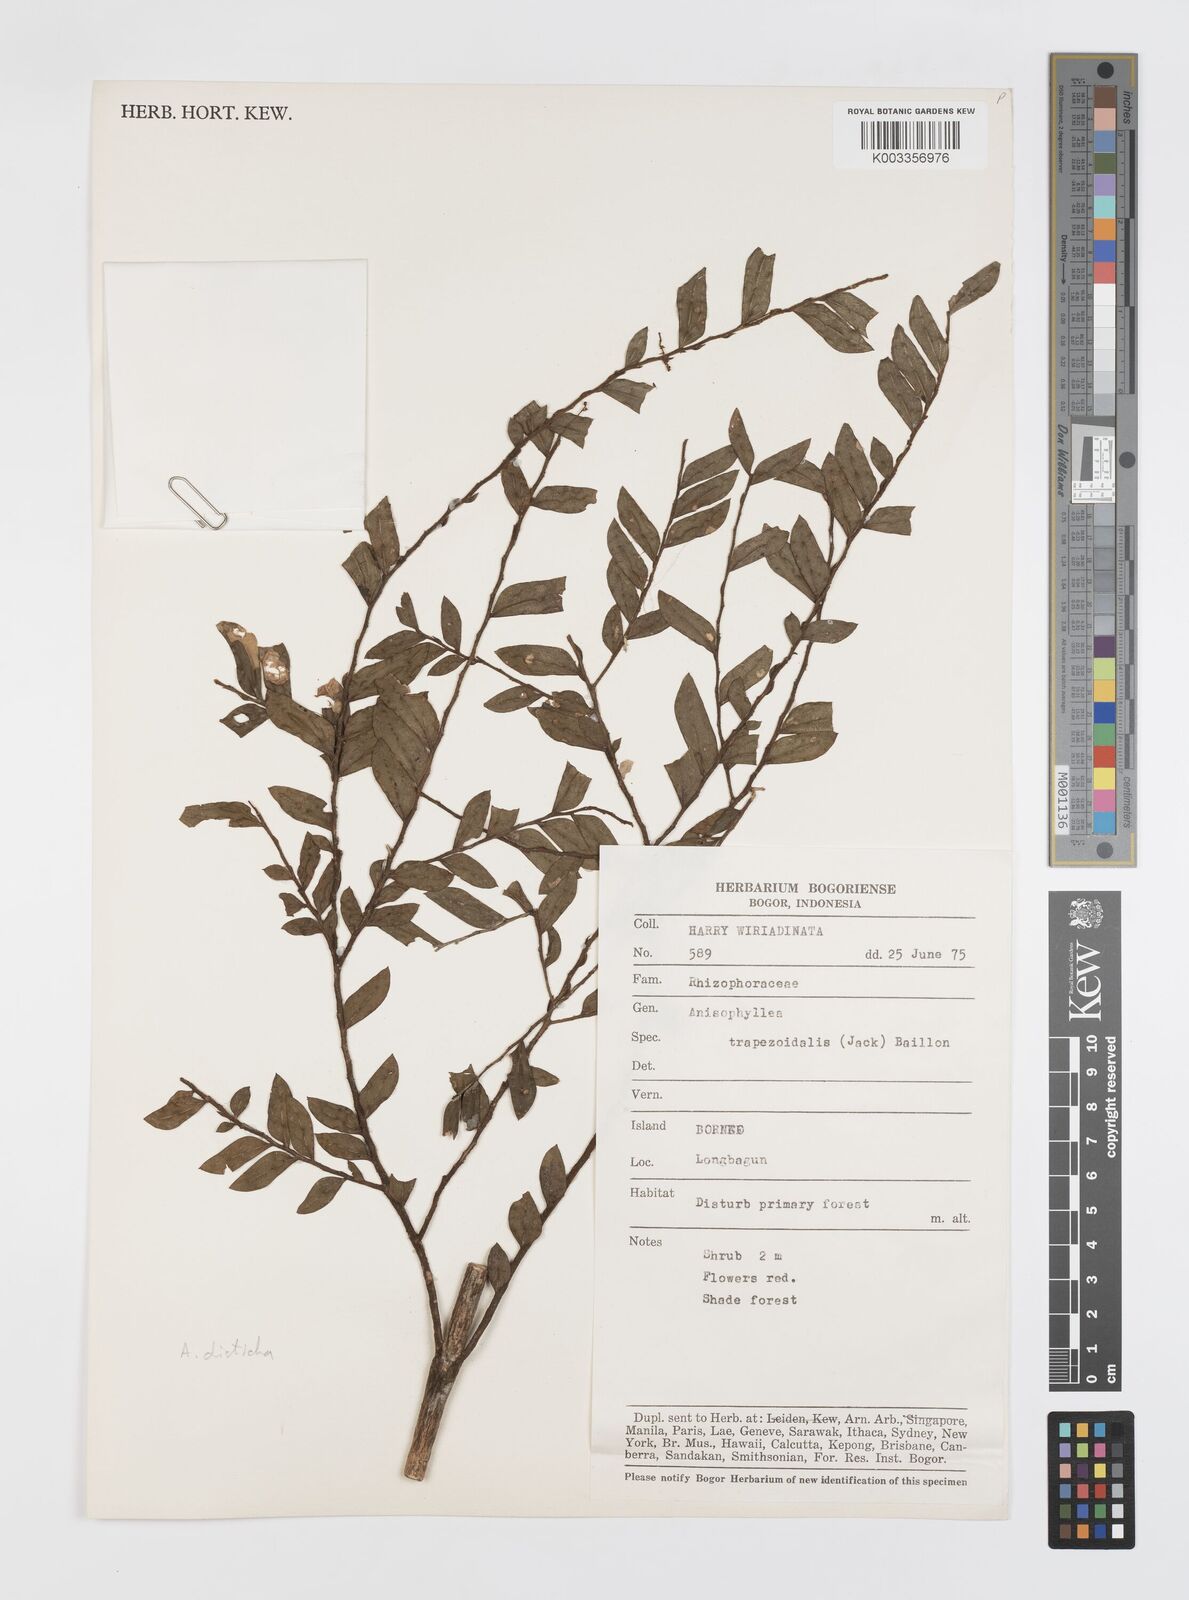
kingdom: Plantae
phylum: Tracheophyta
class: Magnoliopsida
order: Cucurbitales
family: Anisophylleaceae
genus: Anisophyllea
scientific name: Anisophyllea disticha
